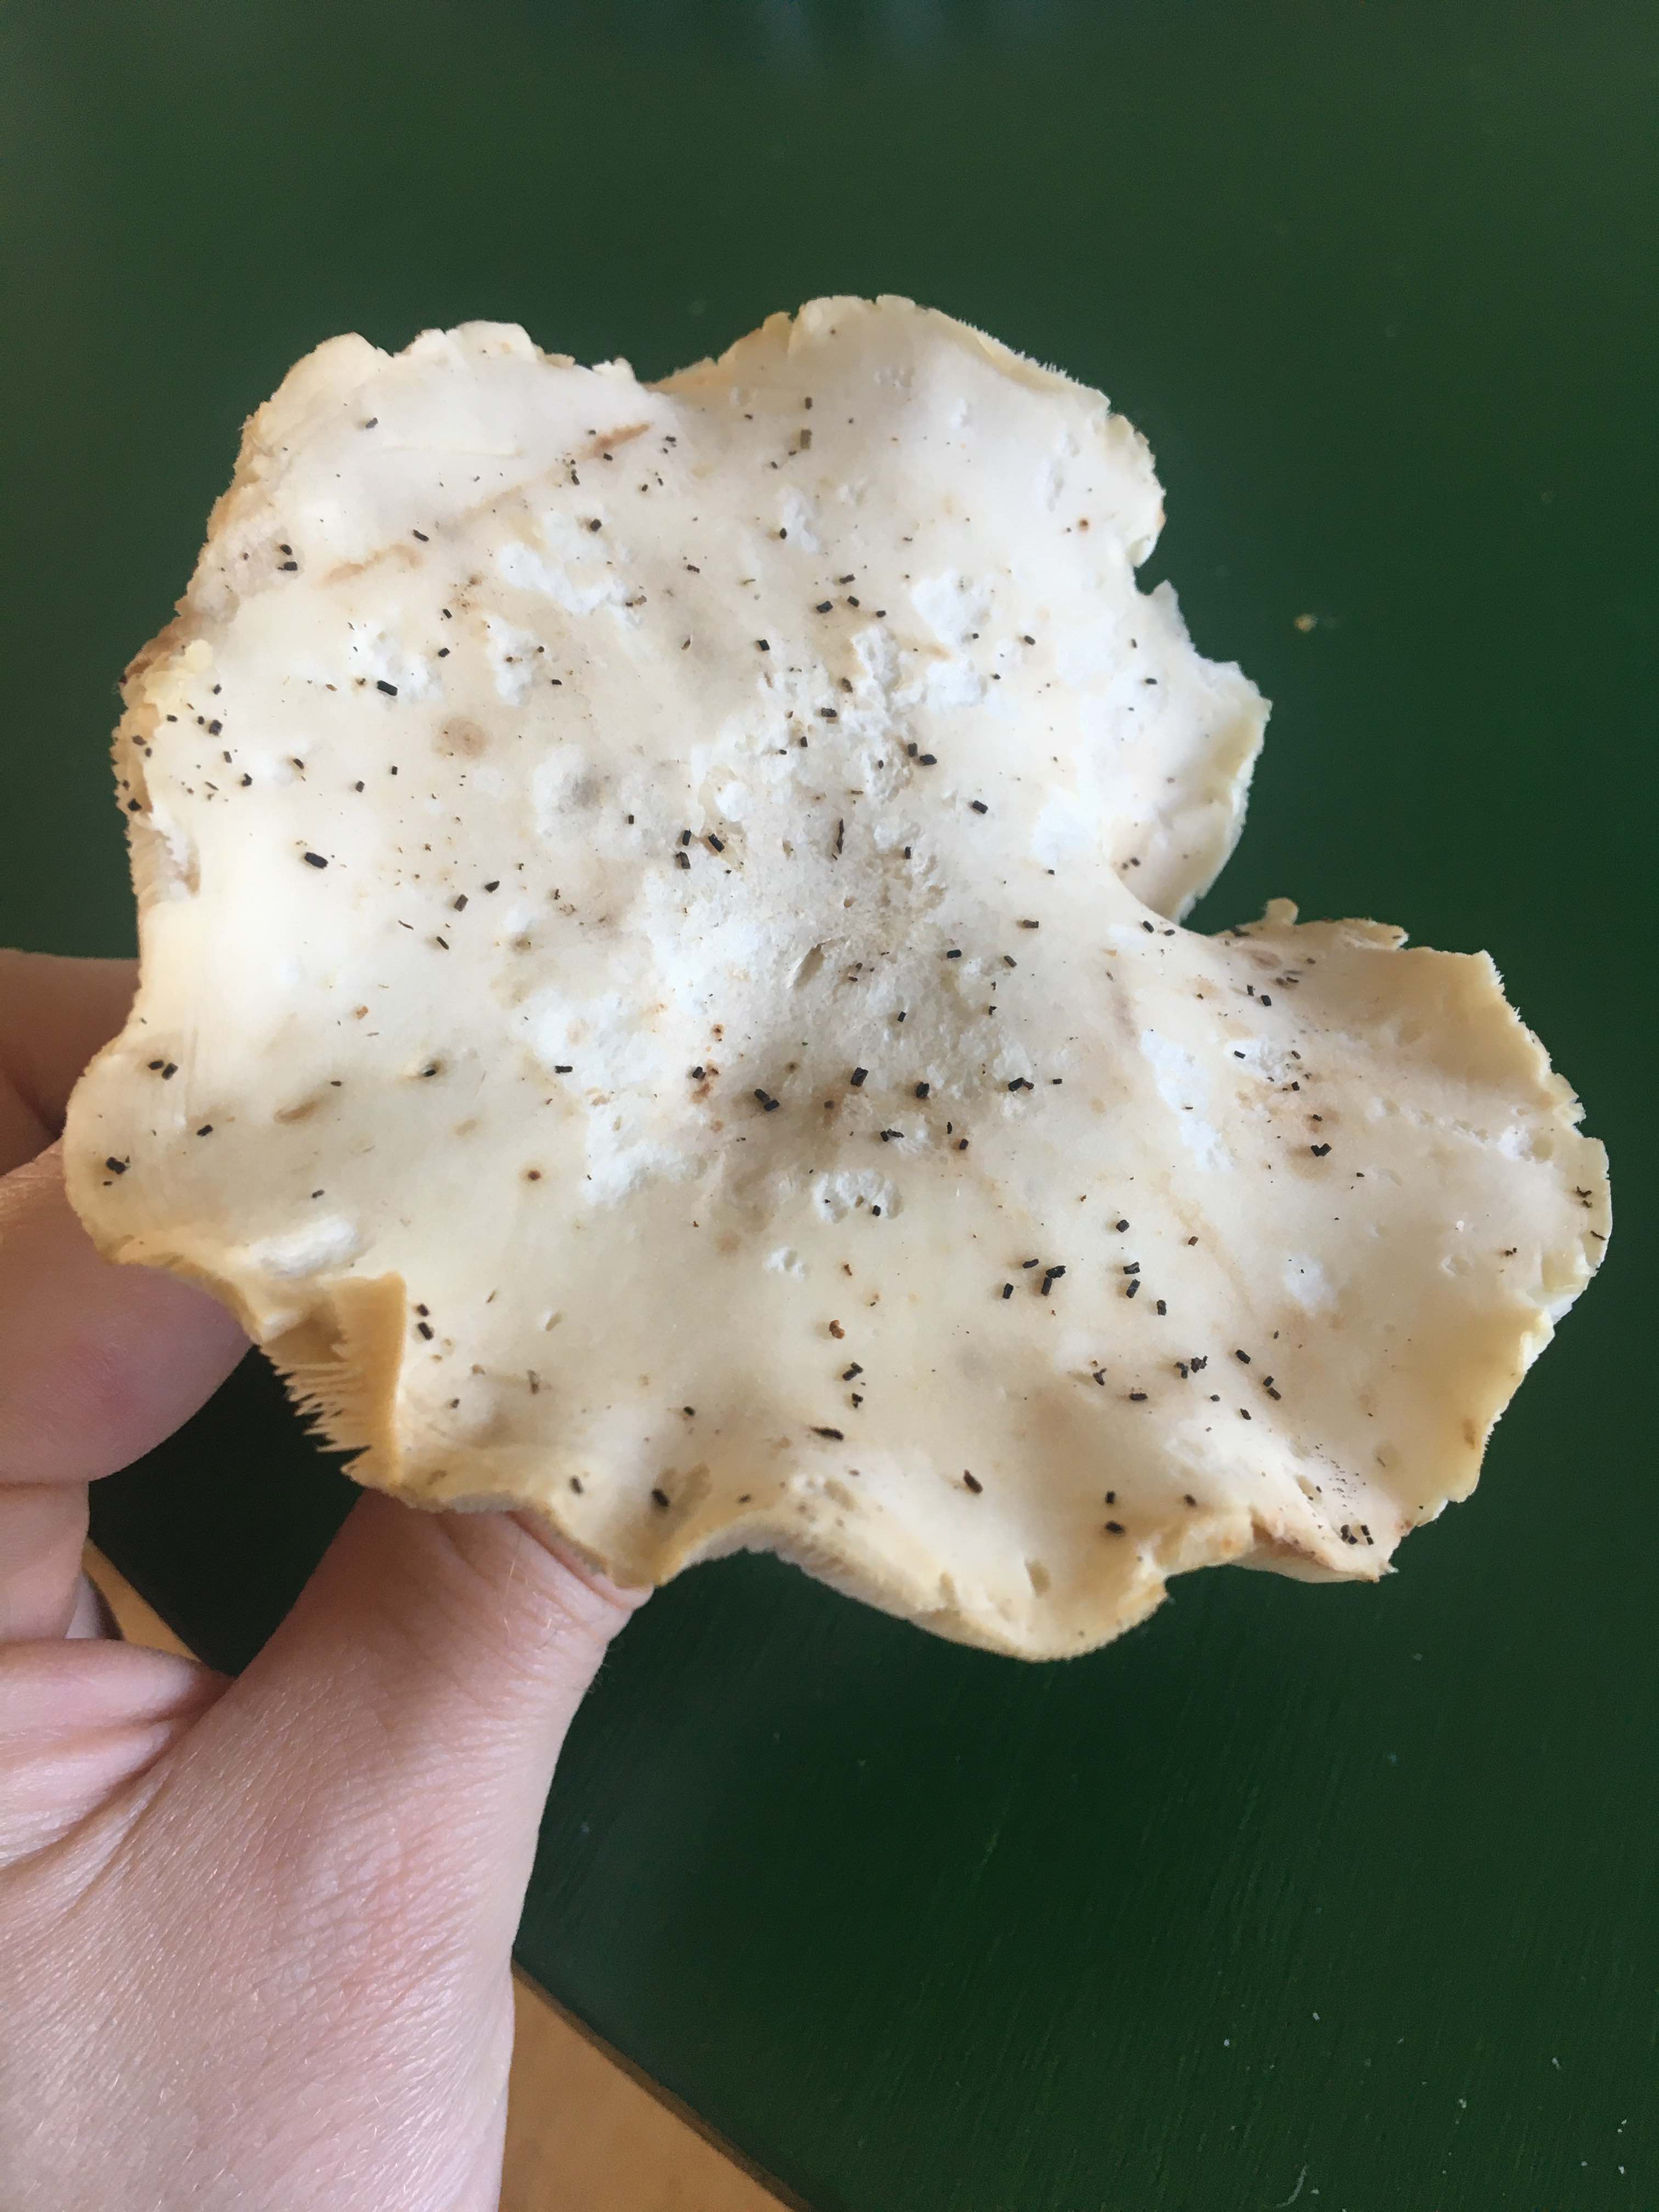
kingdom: Fungi
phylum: Basidiomycota
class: Agaricomycetes
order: Agaricales
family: Lyophyllaceae
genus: Calocybe
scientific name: Calocybe gambosa
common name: vårmusseron
